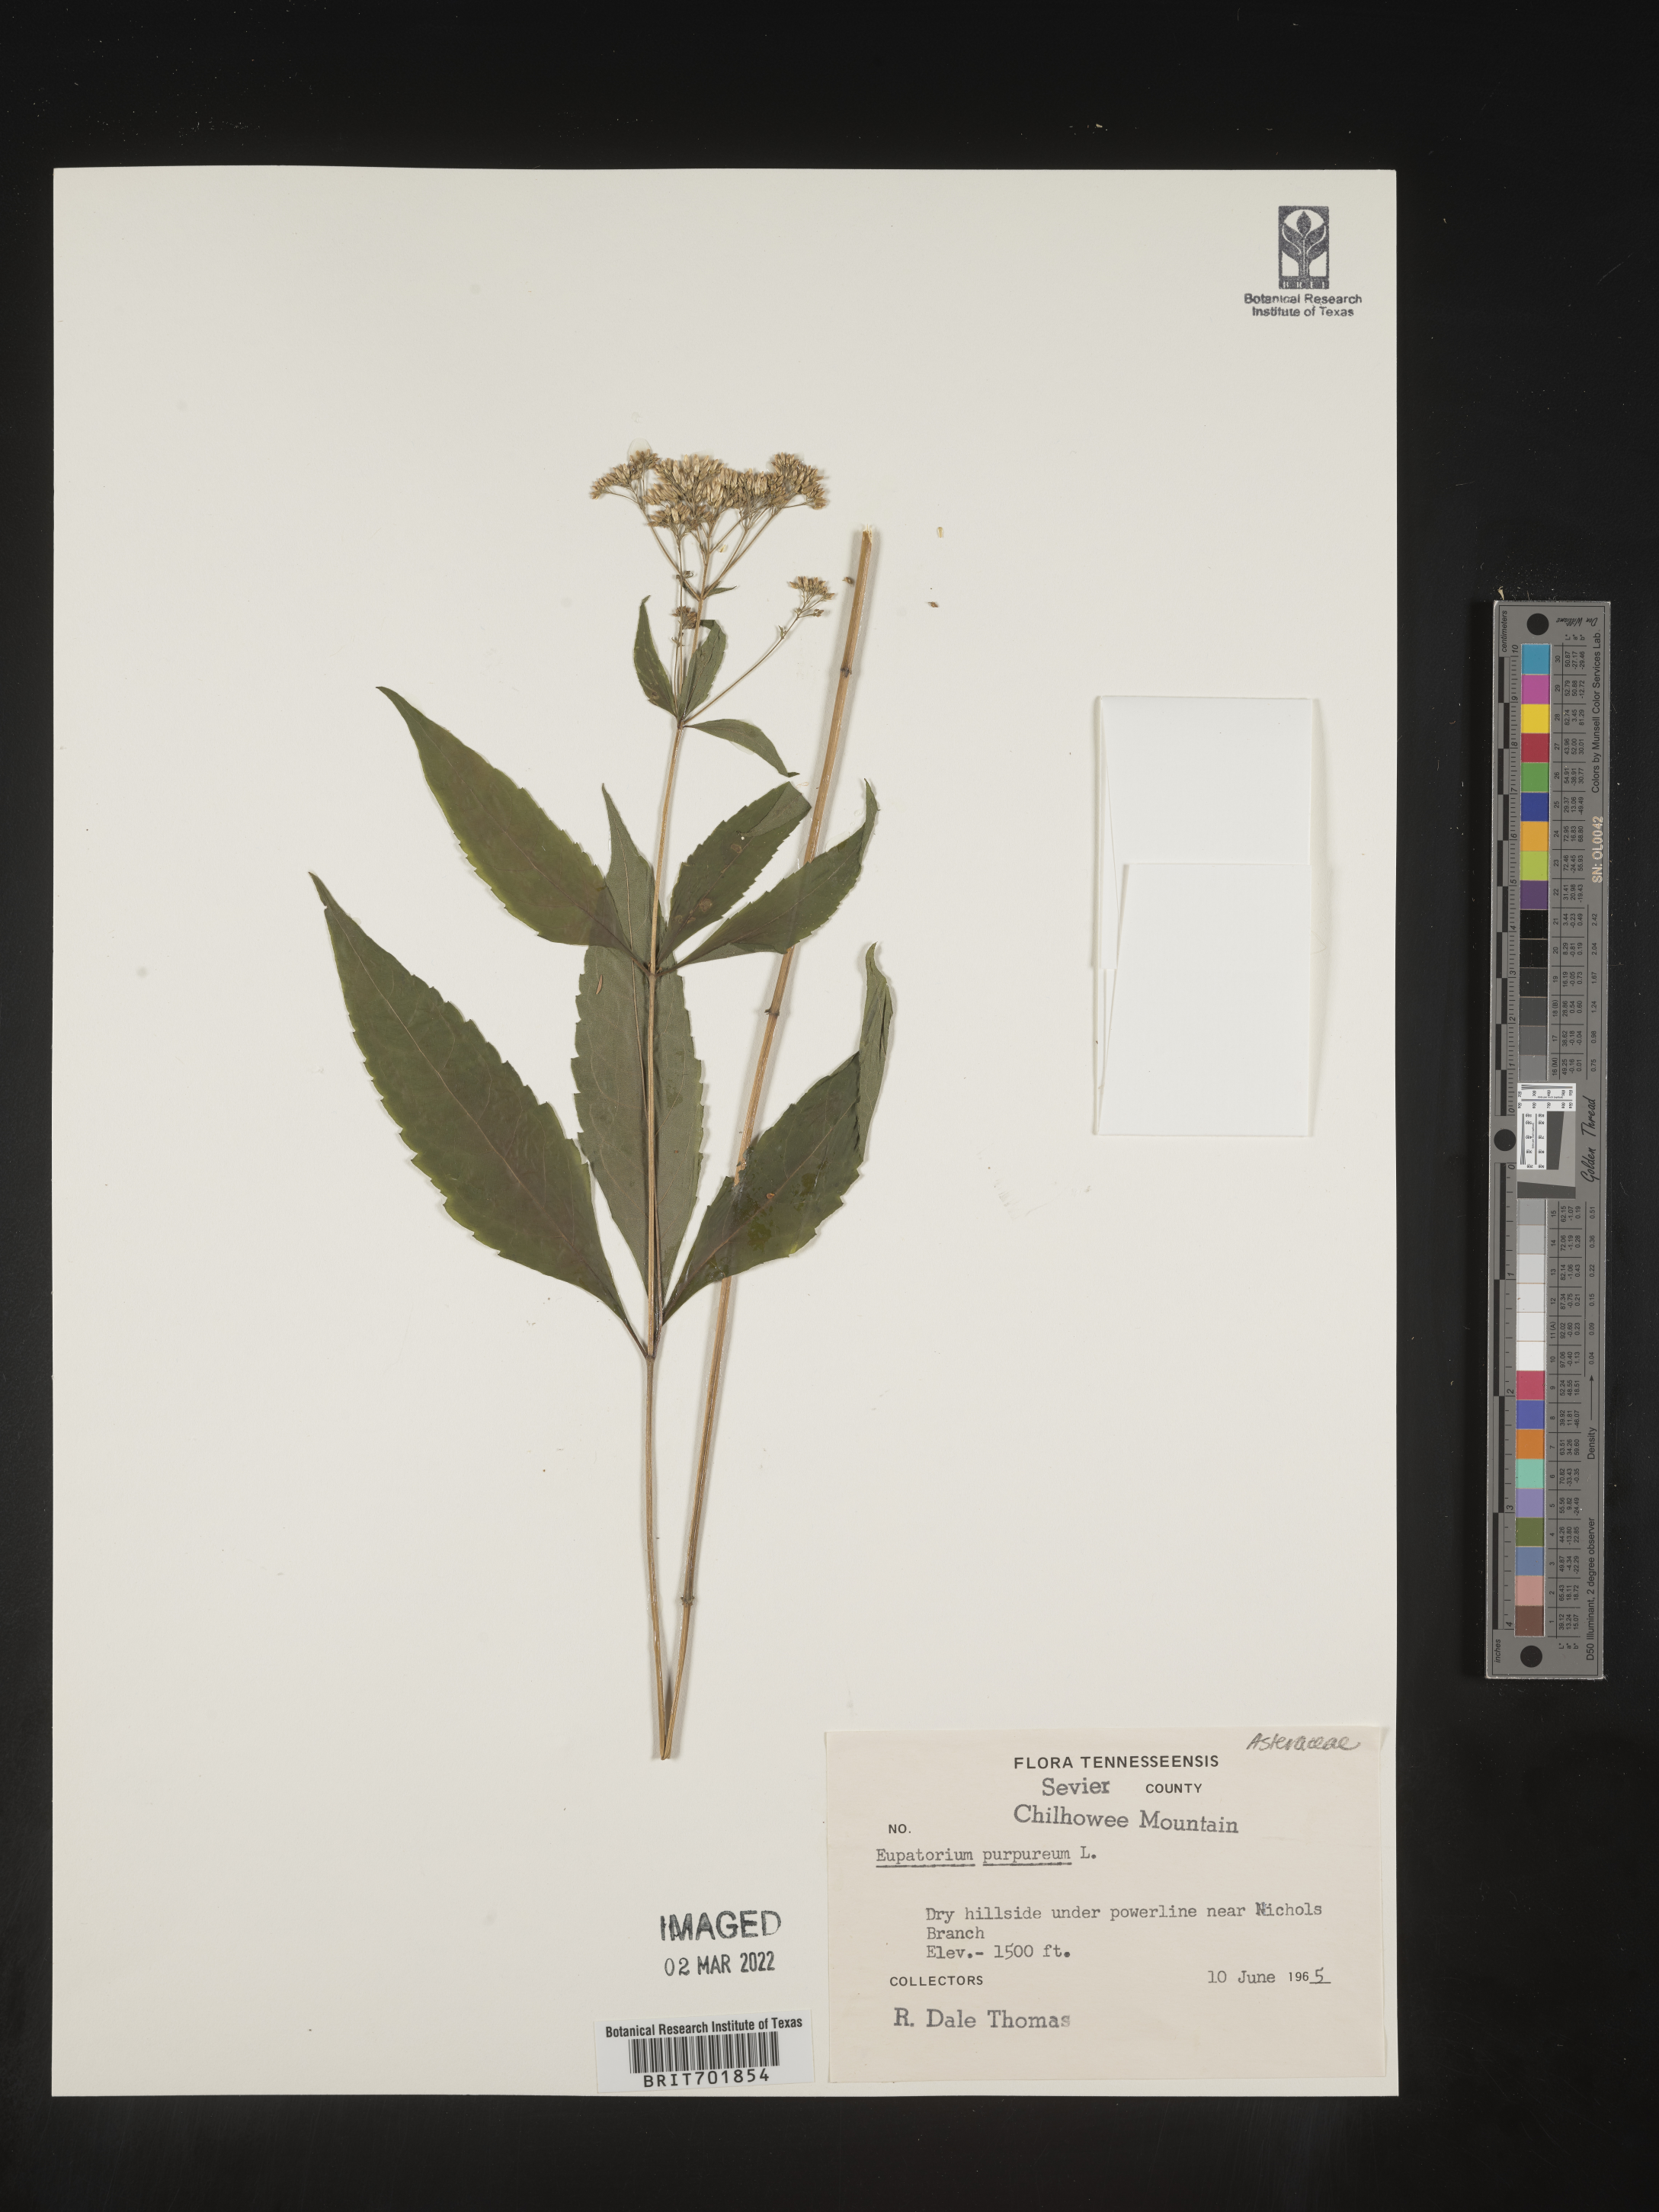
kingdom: Plantae
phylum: Tracheophyta
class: Magnoliopsida
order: Asterales
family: Asteraceae
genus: Eupatorium
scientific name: Eupatorium quaternum
